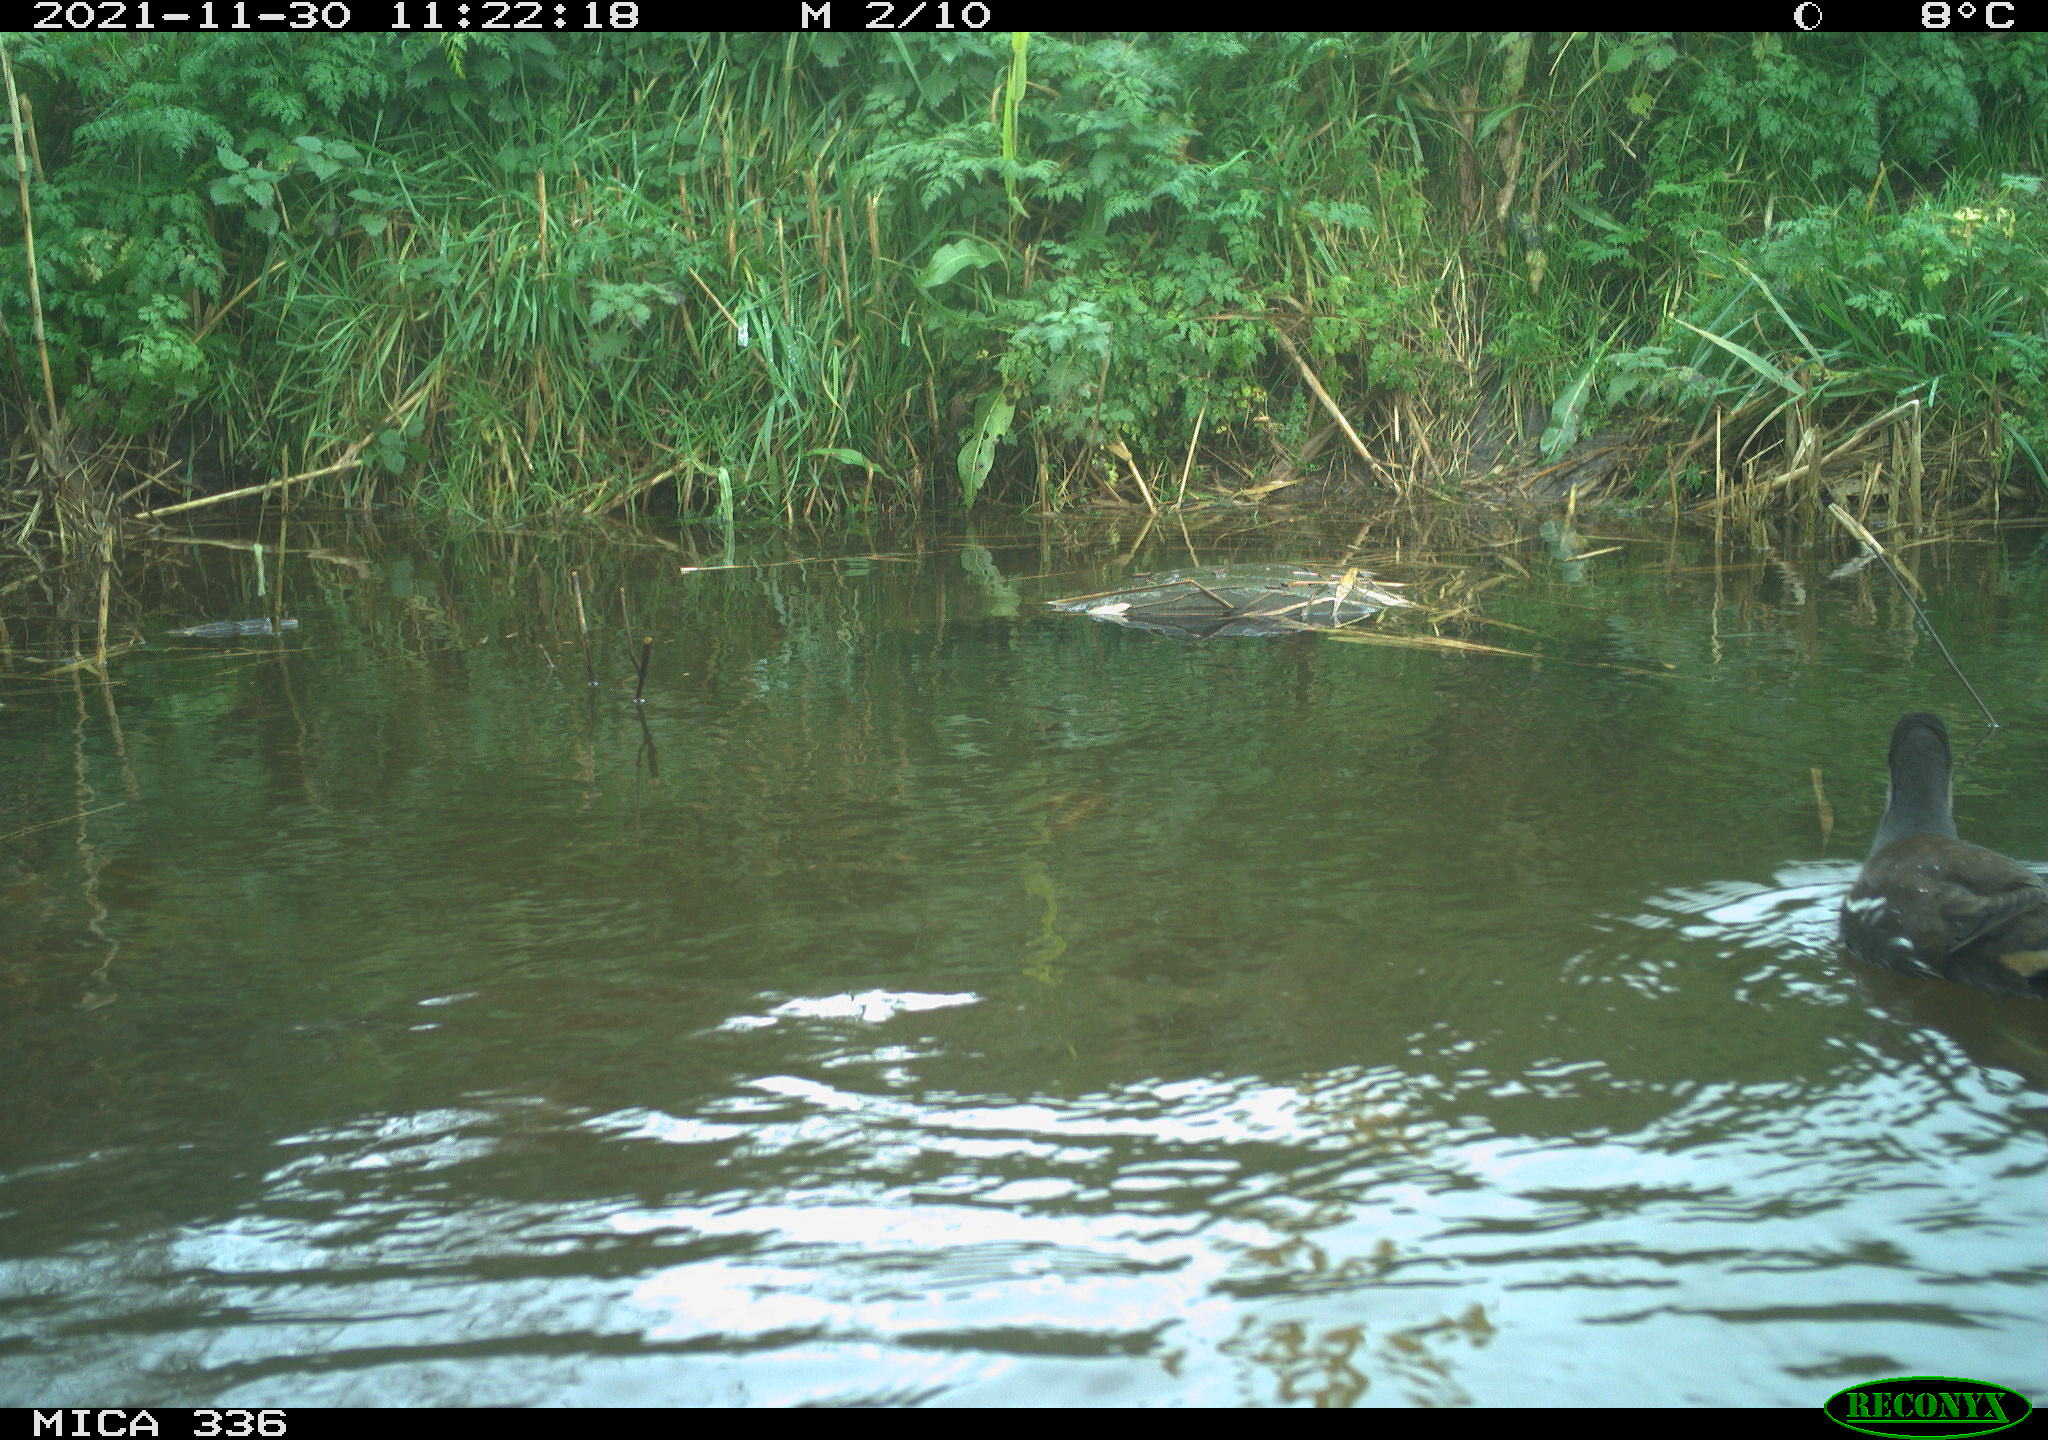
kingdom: Animalia
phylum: Chordata
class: Aves
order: Gruiformes
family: Rallidae
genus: Gallinula
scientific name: Gallinula chloropus
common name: Common moorhen
